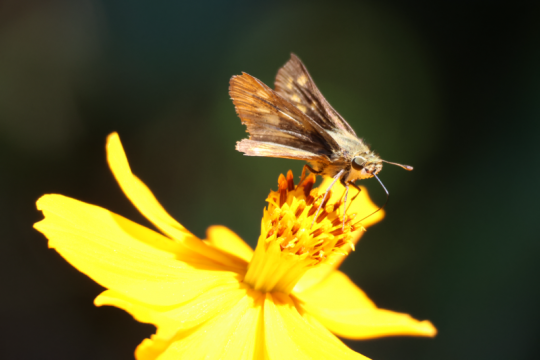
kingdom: Animalia
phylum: Arthropoda
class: Insecta
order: Lepidoptera
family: Hesperiidae
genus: Atalopedes
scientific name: Atalopedes campestris
